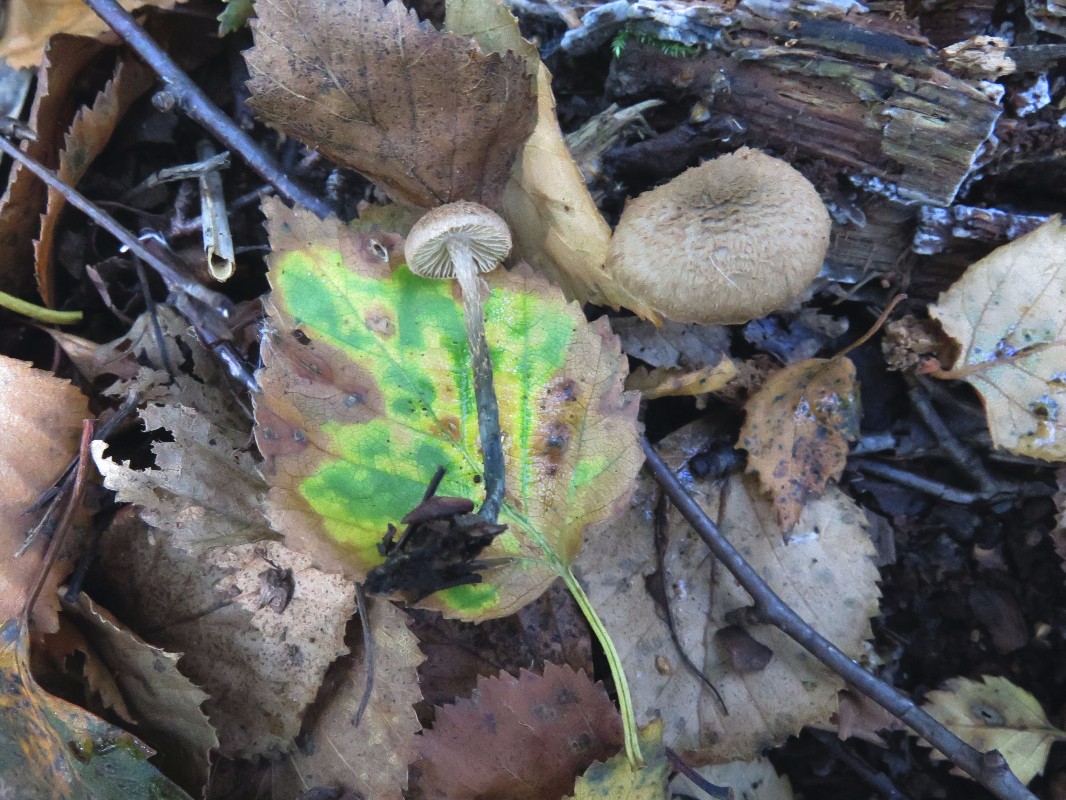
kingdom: Fungi
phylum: Basidiomycota
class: Agaricomycetes
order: Agaricales
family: Inocybaceae
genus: Inosperma
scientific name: Inosperma calamistratum
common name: grønfodet trævlhat
